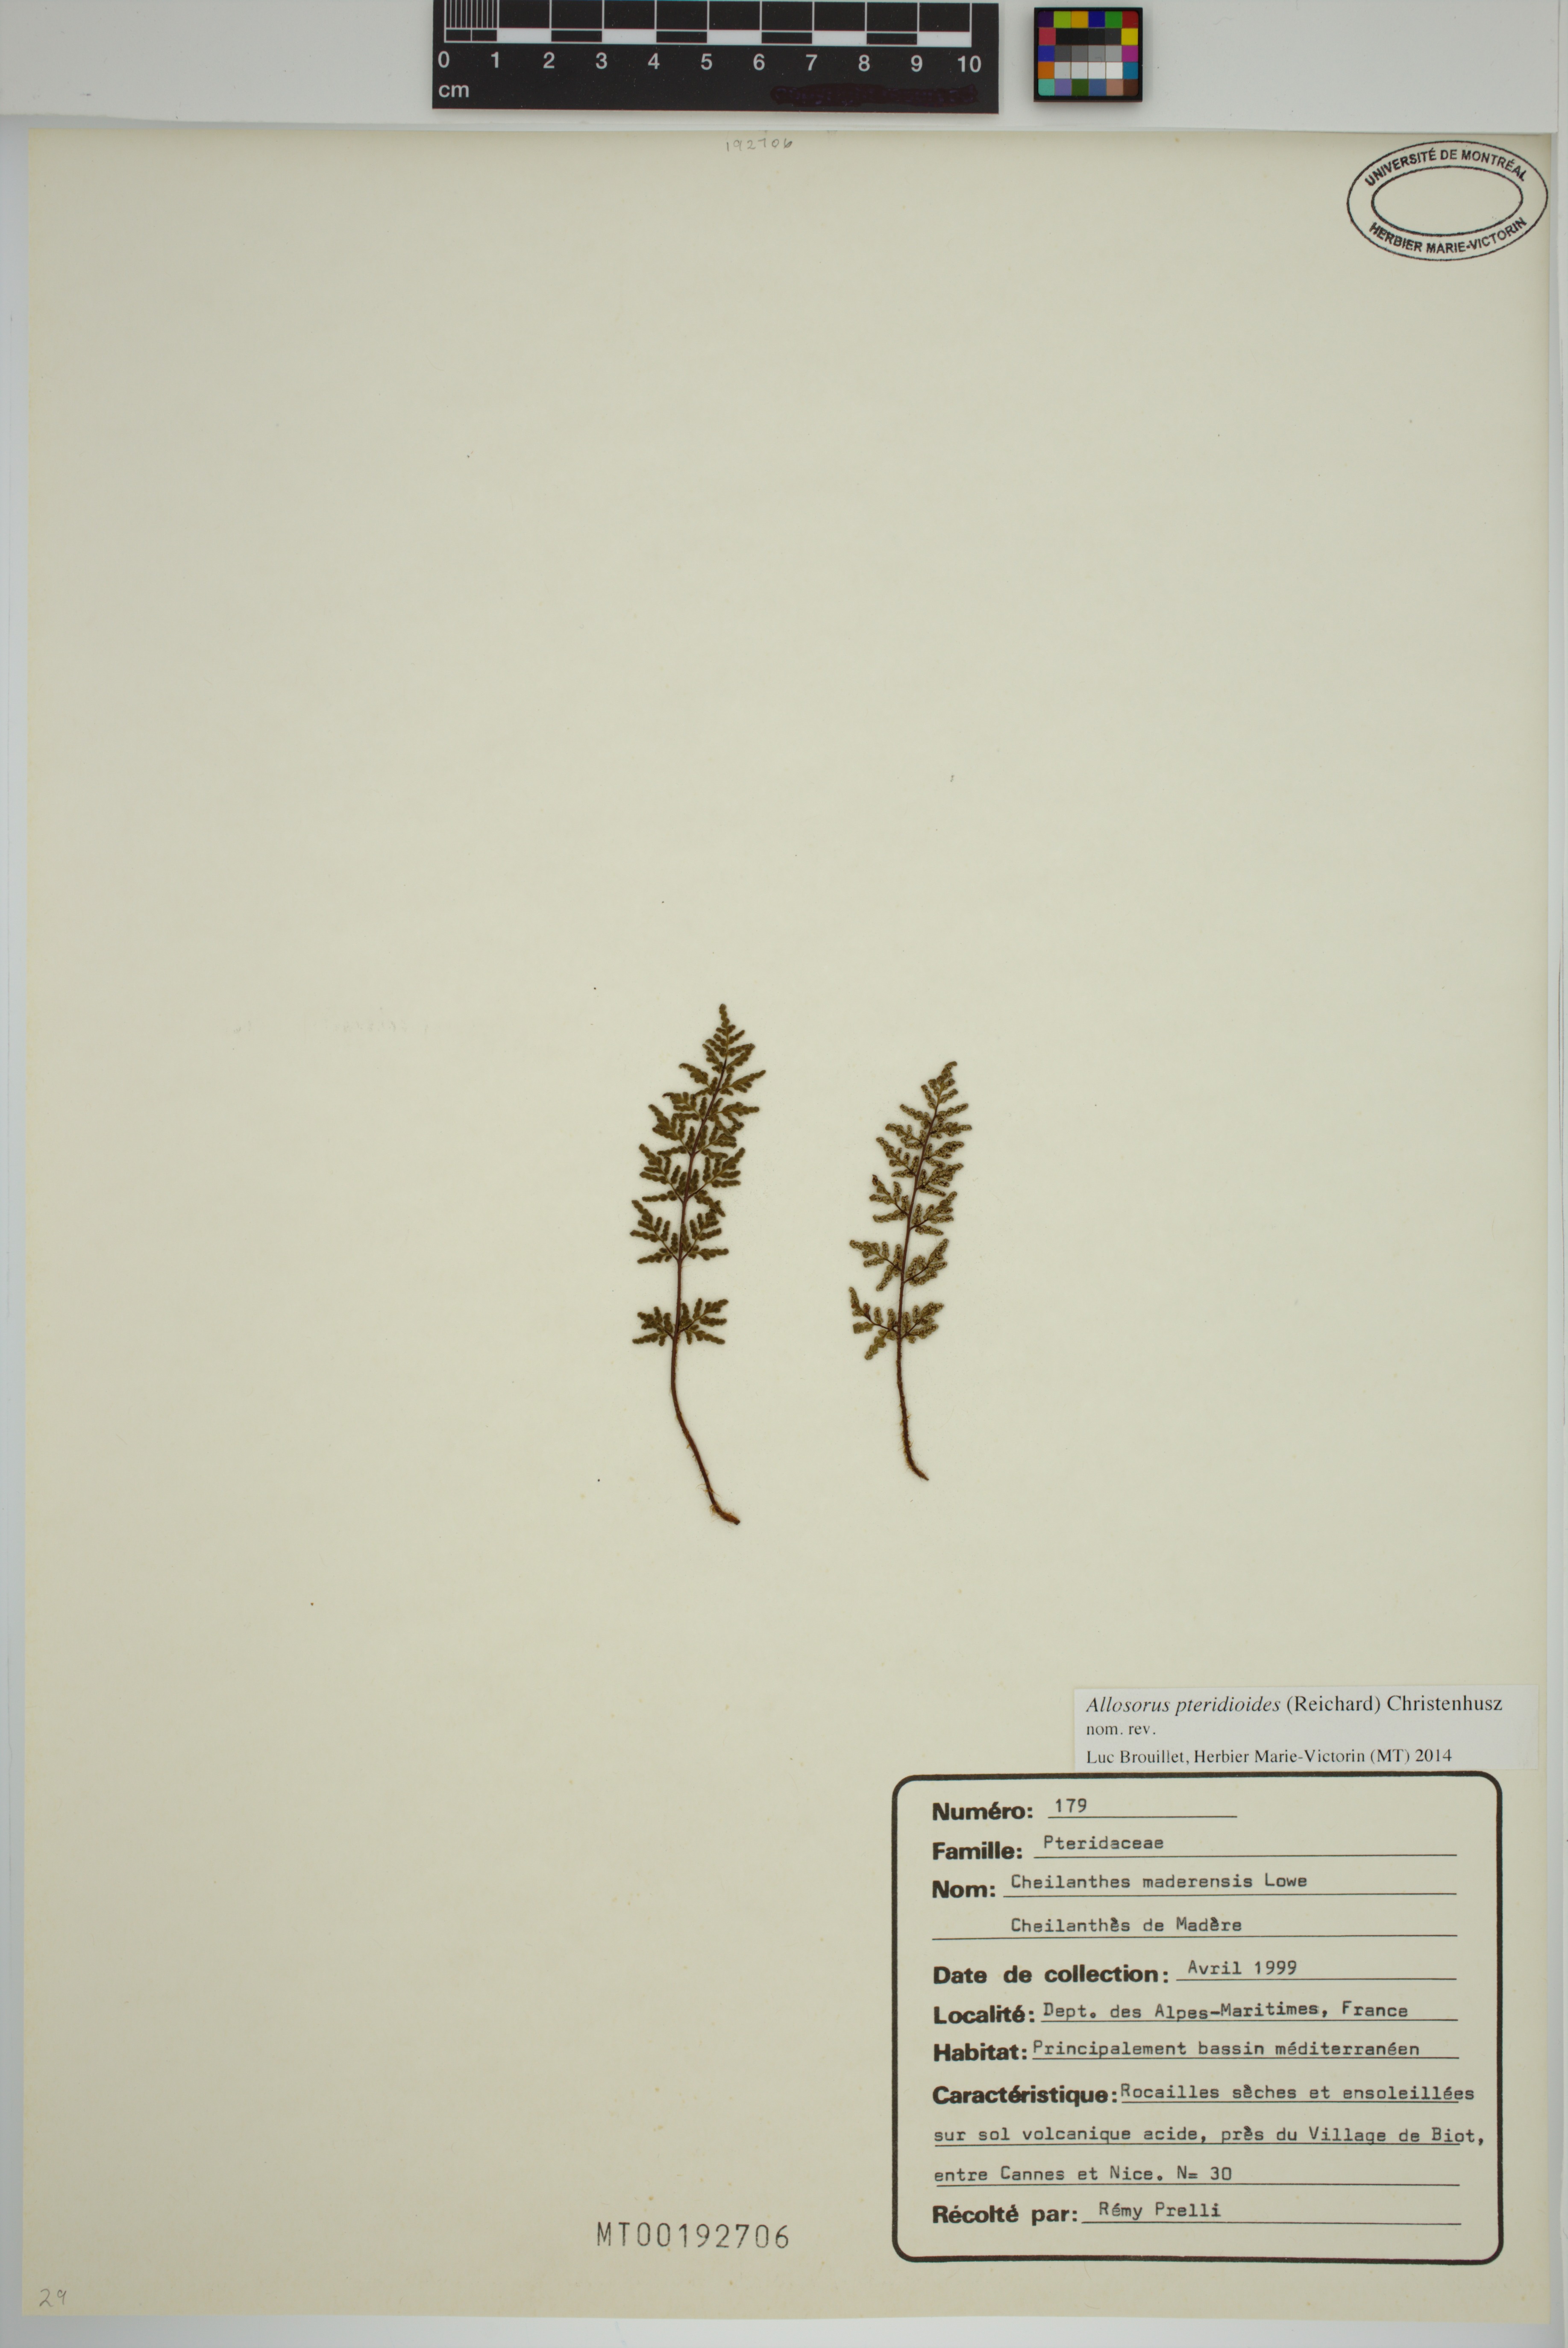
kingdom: Plantae
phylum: Tracheophyta
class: Polypodiopsida
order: Polypodiales
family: Pteridaceae
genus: Oeosporangium
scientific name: Oeosporangium pteridioides
